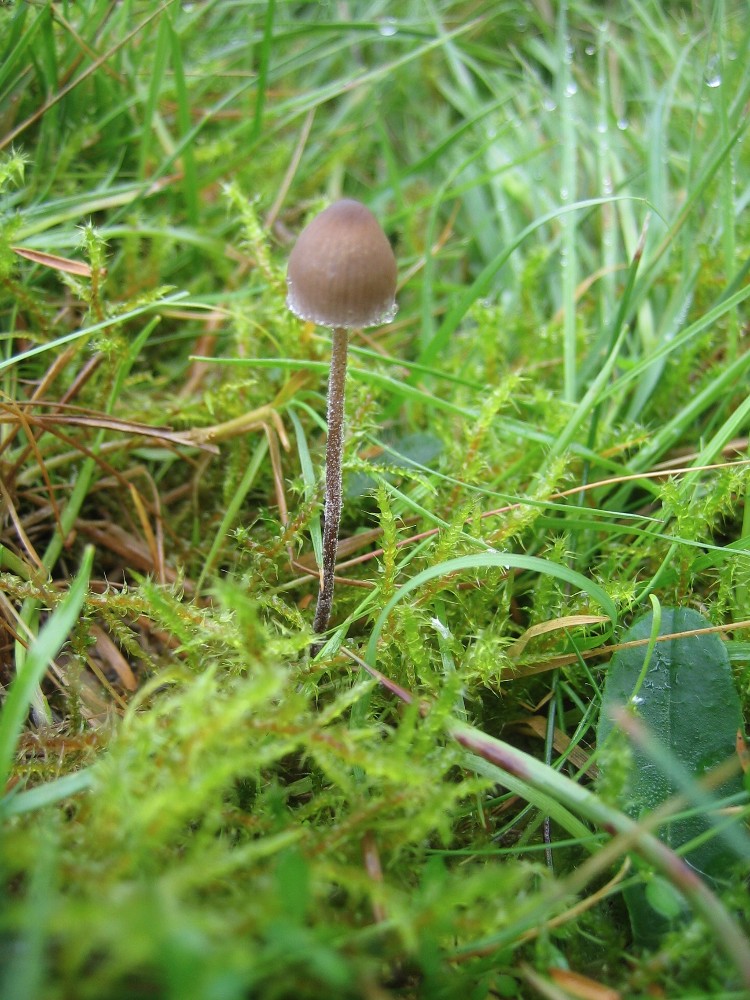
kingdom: Fungi
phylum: Basidiomycota
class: Agaricomycetes
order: Agaricales
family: Bolbitiaceae
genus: Panaeolus
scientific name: Panaeolus acuminatus
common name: høj glanshat
